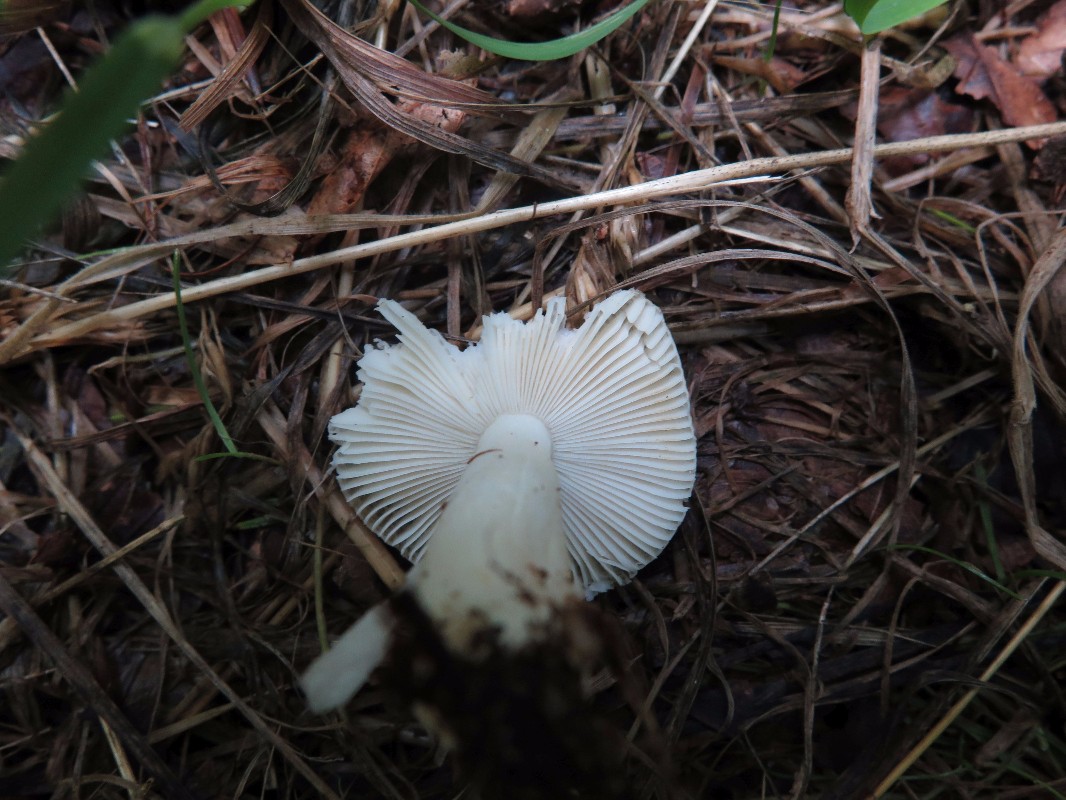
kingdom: Fungi
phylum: Basidiomycota
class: Agaricomycetes
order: Russulales
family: Russulaceae
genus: Russula
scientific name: Russula solaris
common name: sol-skørhat
